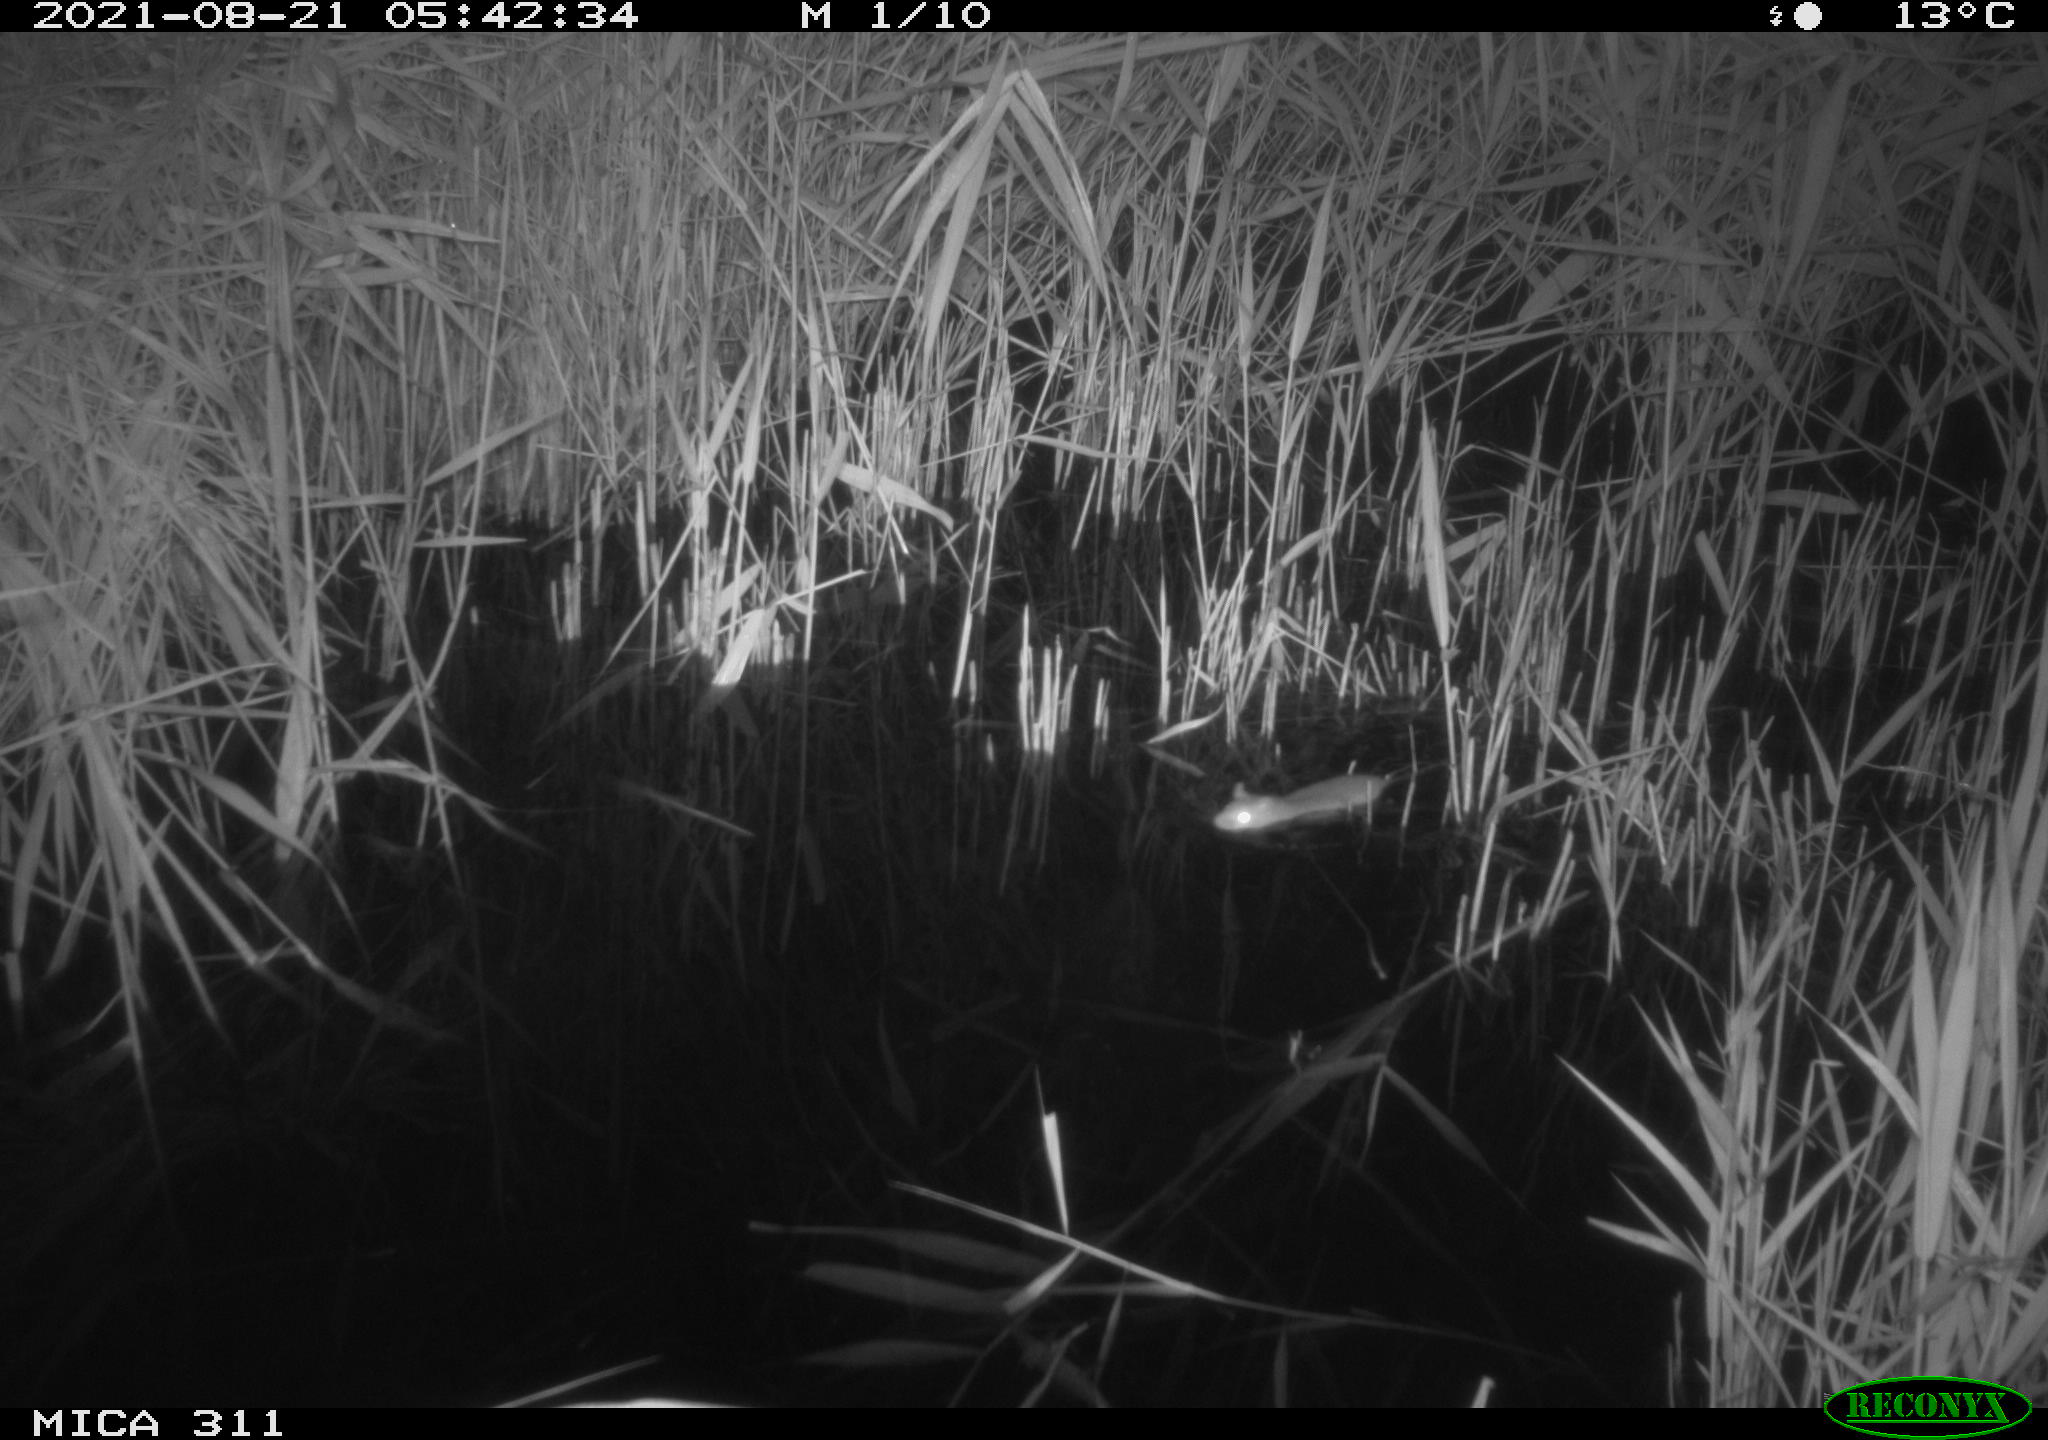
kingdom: Animalia
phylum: Chordata
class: Mammalia
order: Rodentia
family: Muridae
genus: Rattus
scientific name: Rattus norvegicus
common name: Brown rat
